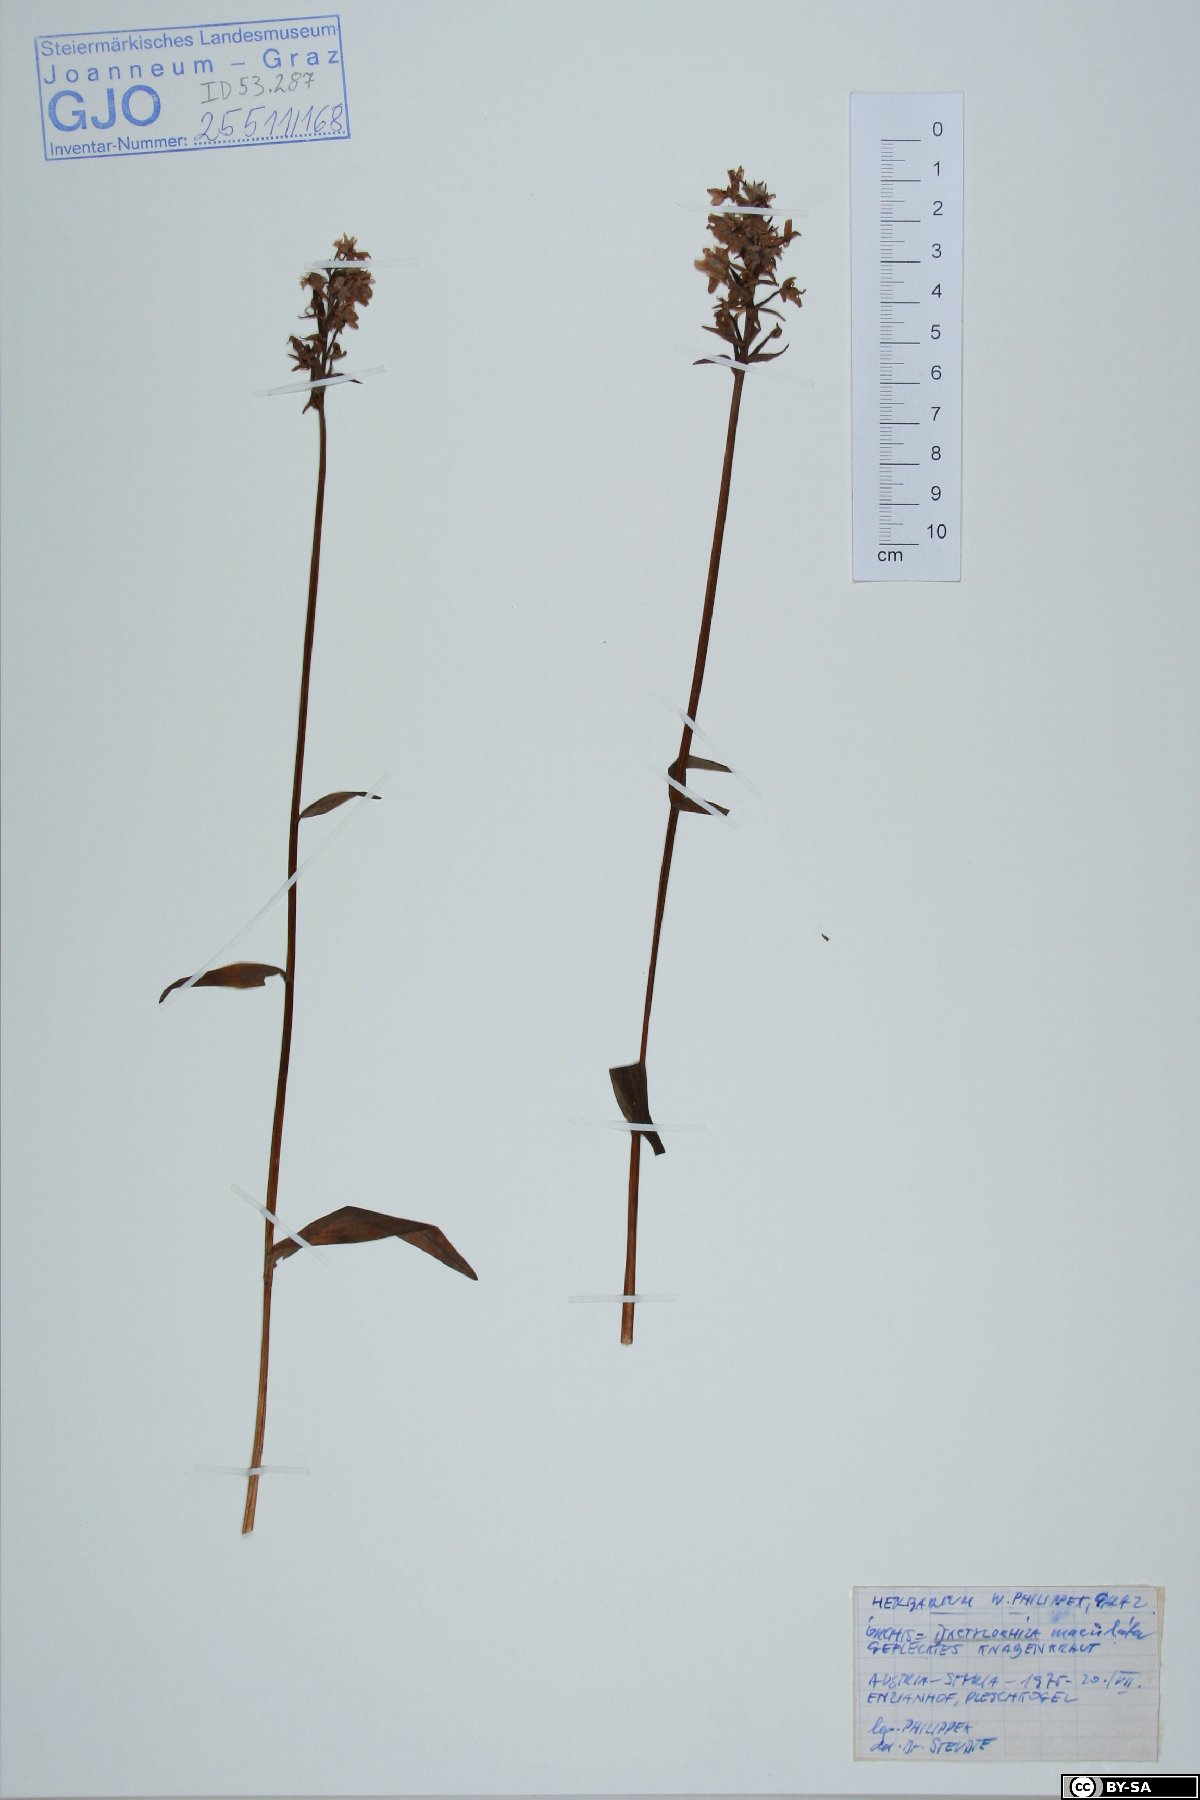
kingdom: Plantae
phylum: Tracheophyta
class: Liliopsida
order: Asparagales
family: Orchidaceae
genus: Dactylorhiza
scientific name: Dactylorhiza maculata
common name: Heath spotted-orchid
